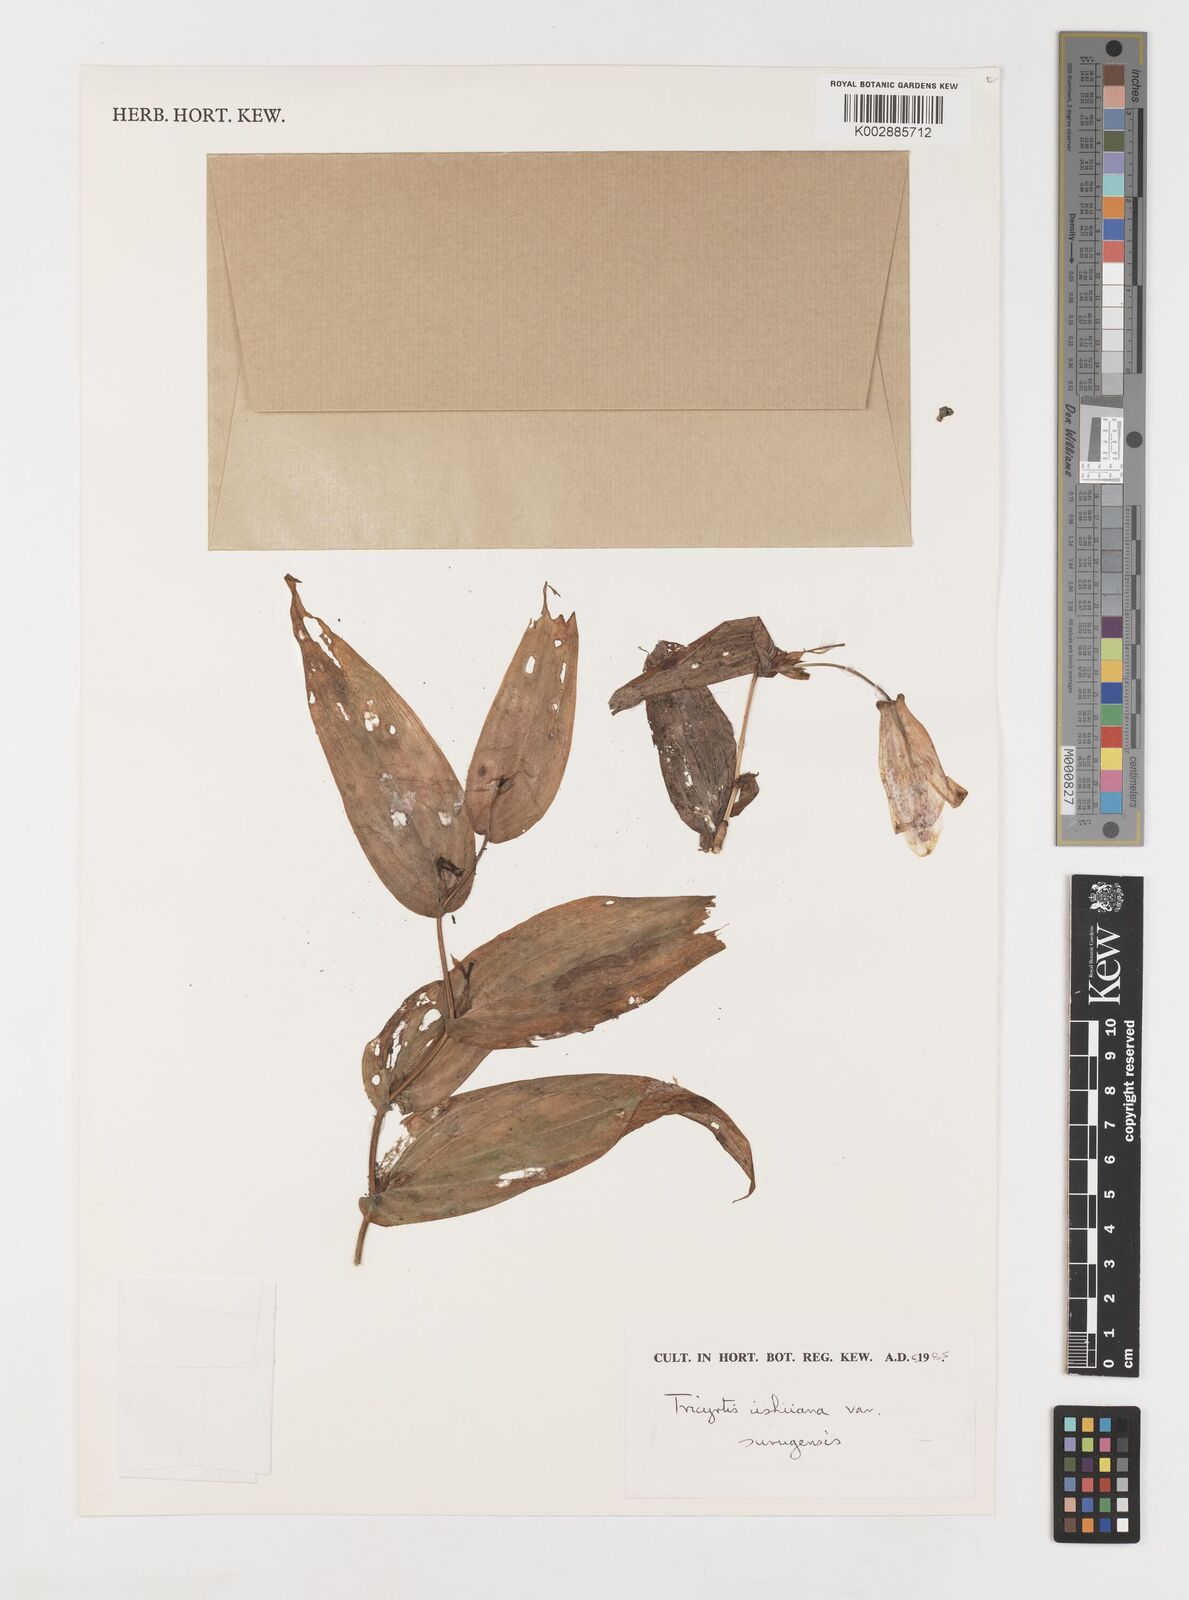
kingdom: Plantae
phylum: Tracheophyta
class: Liliopsida
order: Liliales
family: Liliaceae
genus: Tricyrtis
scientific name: Tricyrtis ishiiana
